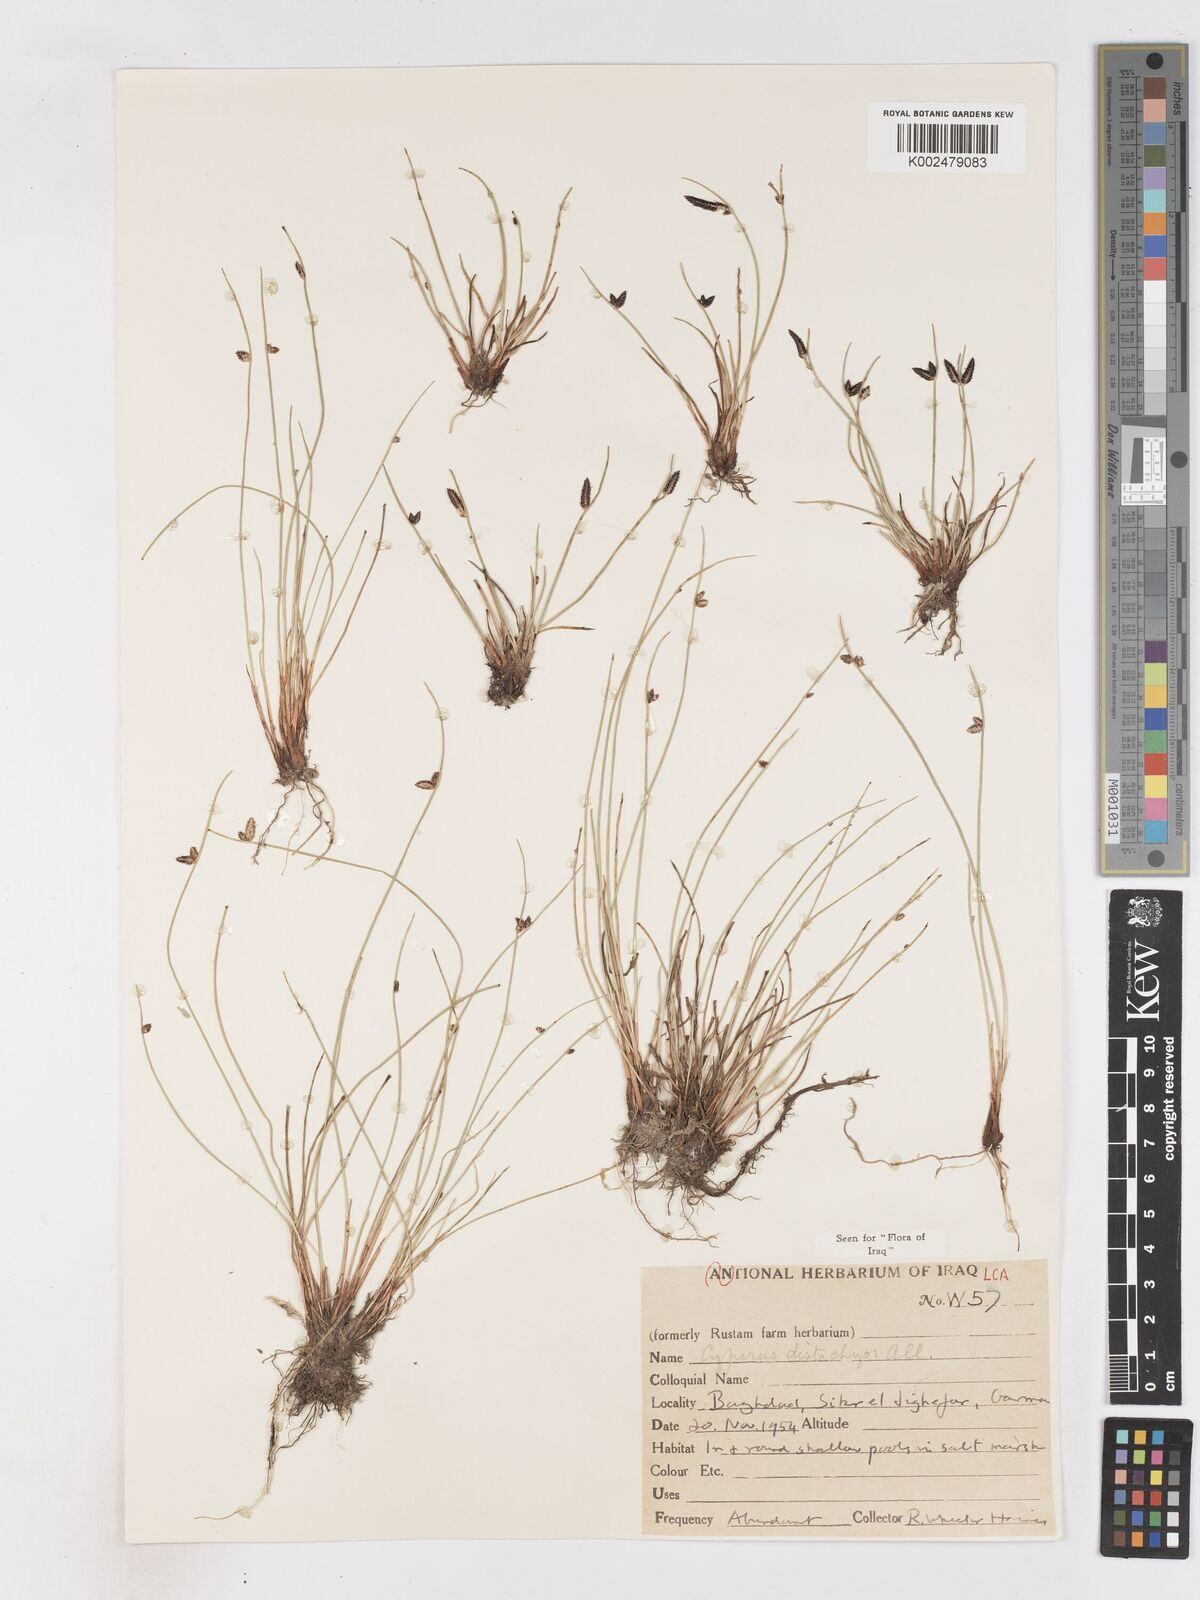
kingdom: Plantae
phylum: Tracheophyta
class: Liliopsida
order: Poales
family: Cyperaceae
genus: Cyperus
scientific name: Cyperus laevigatus
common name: Smooth flat sedge
